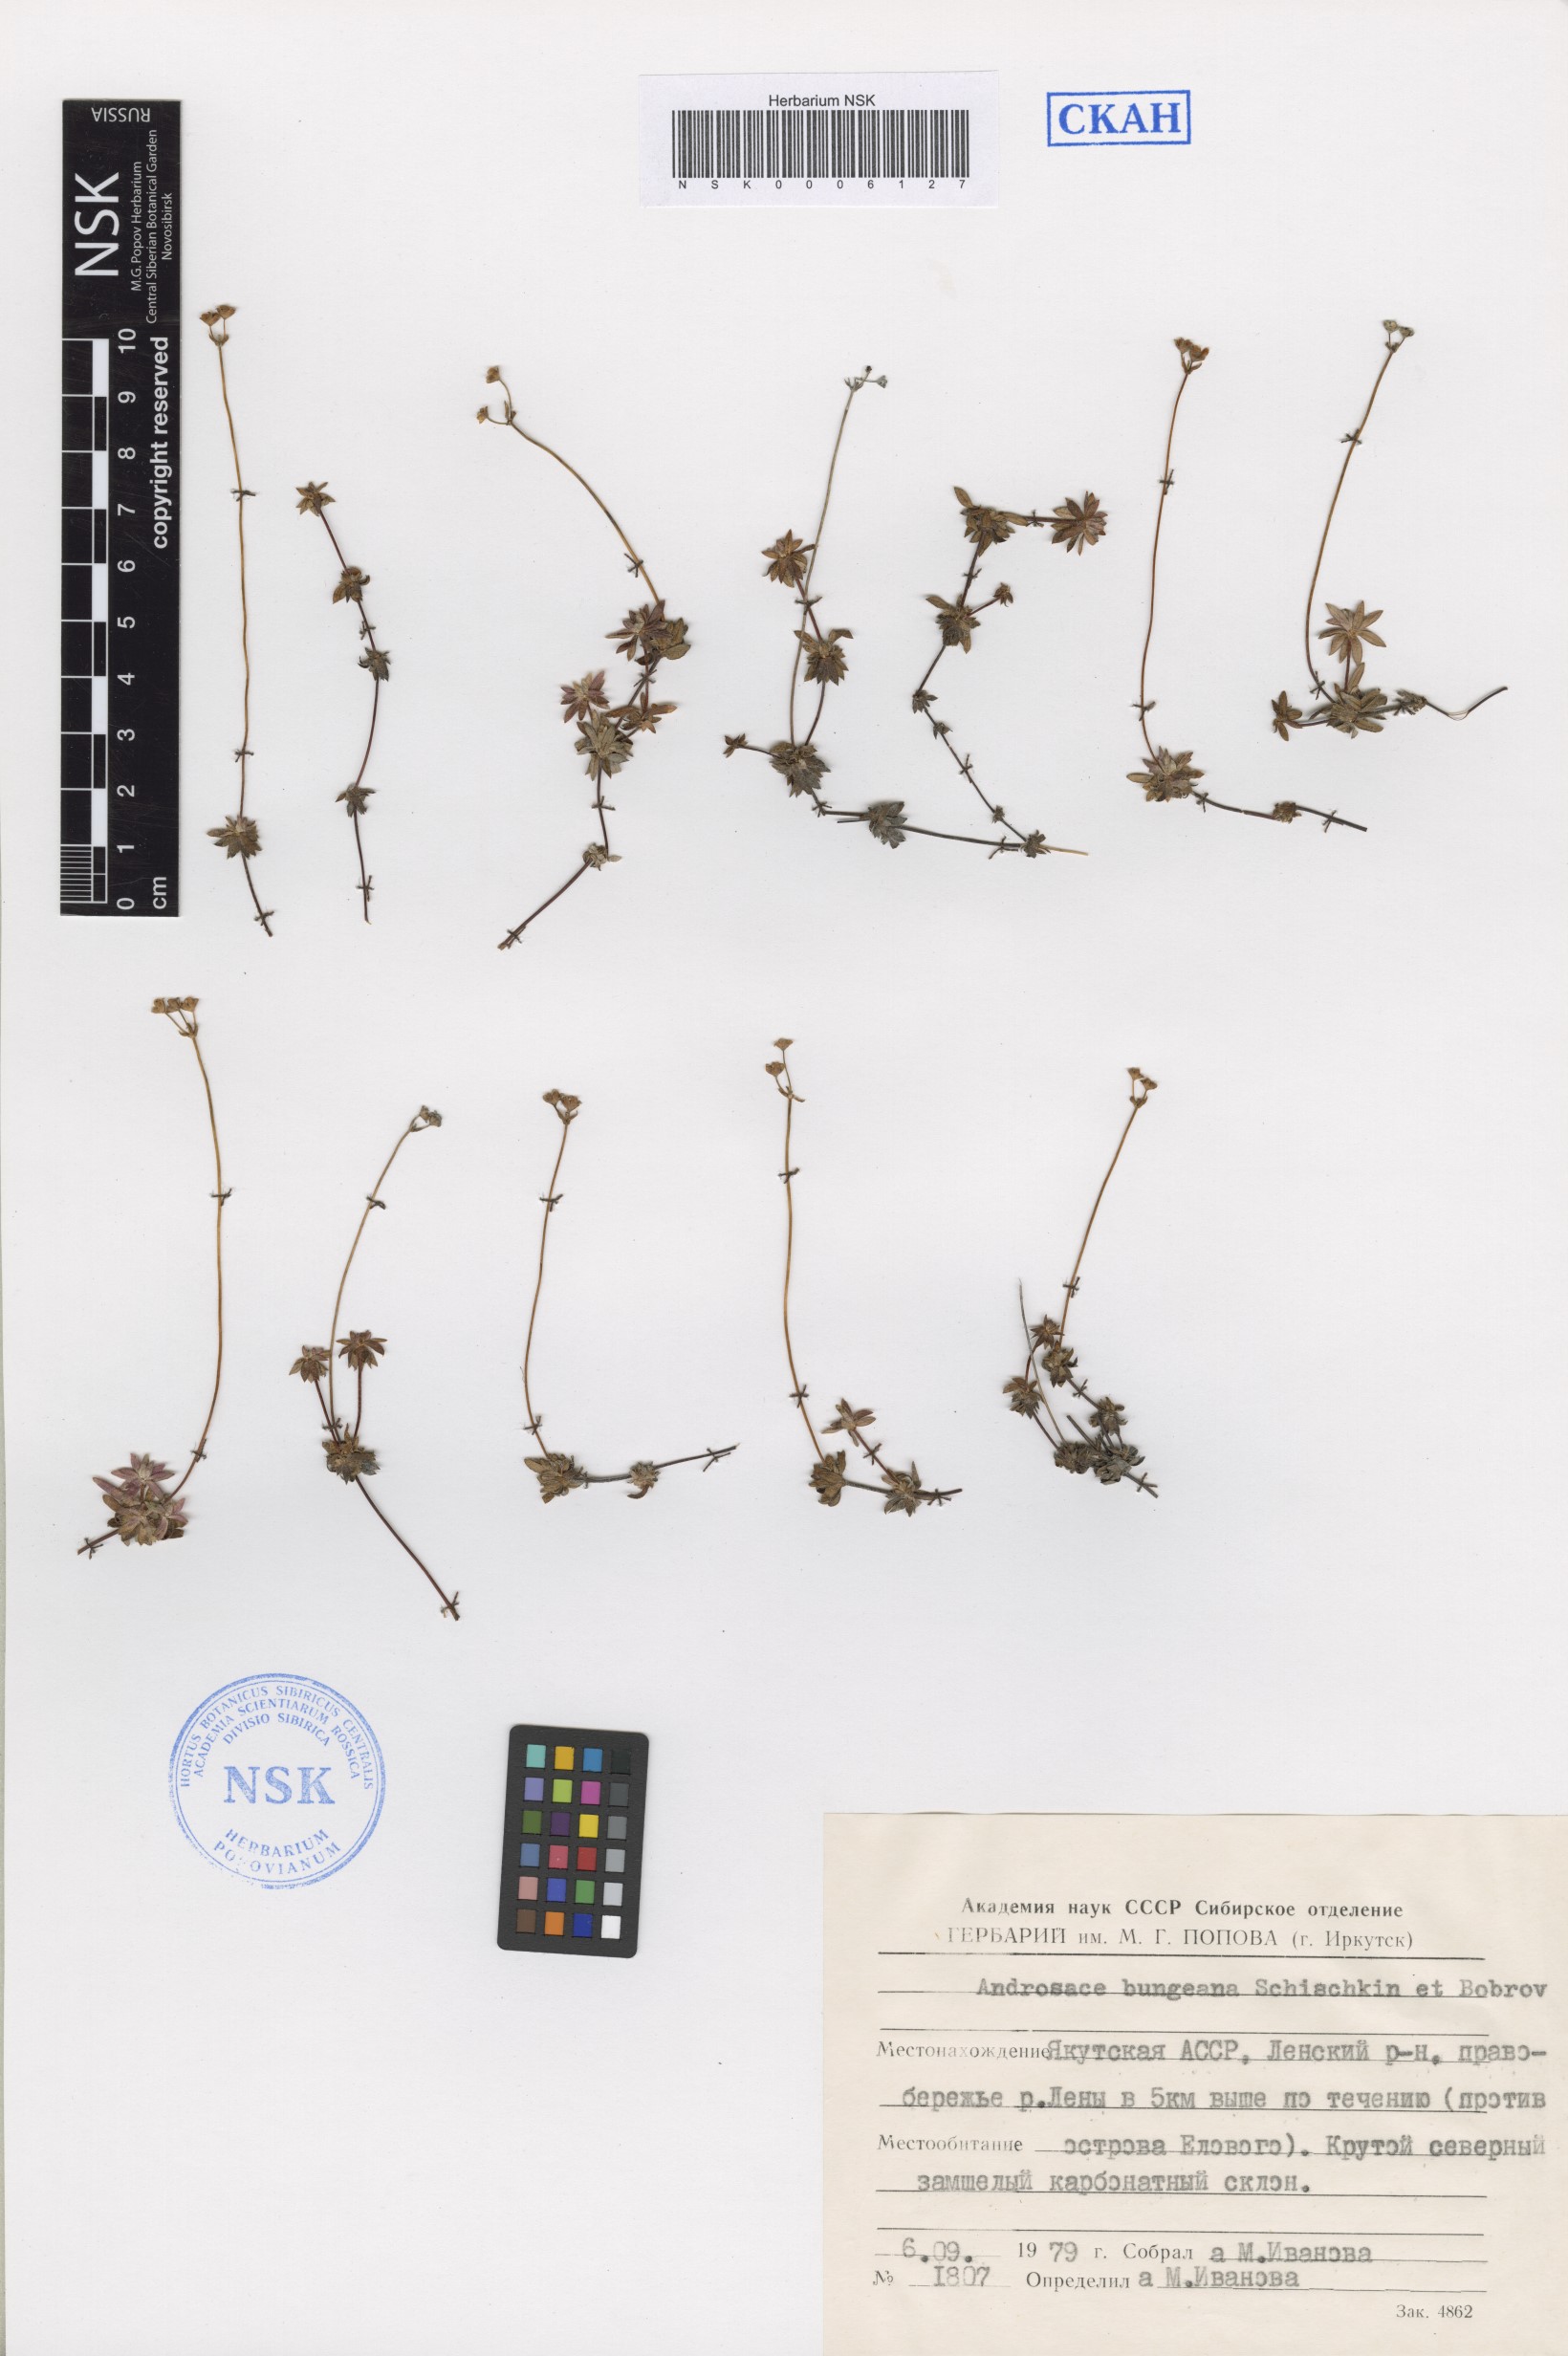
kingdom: Plantae
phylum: Tracheophyta
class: Magnoliopsida
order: Ericales
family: Primulaceae
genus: Androsace
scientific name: Androsace bungeana
